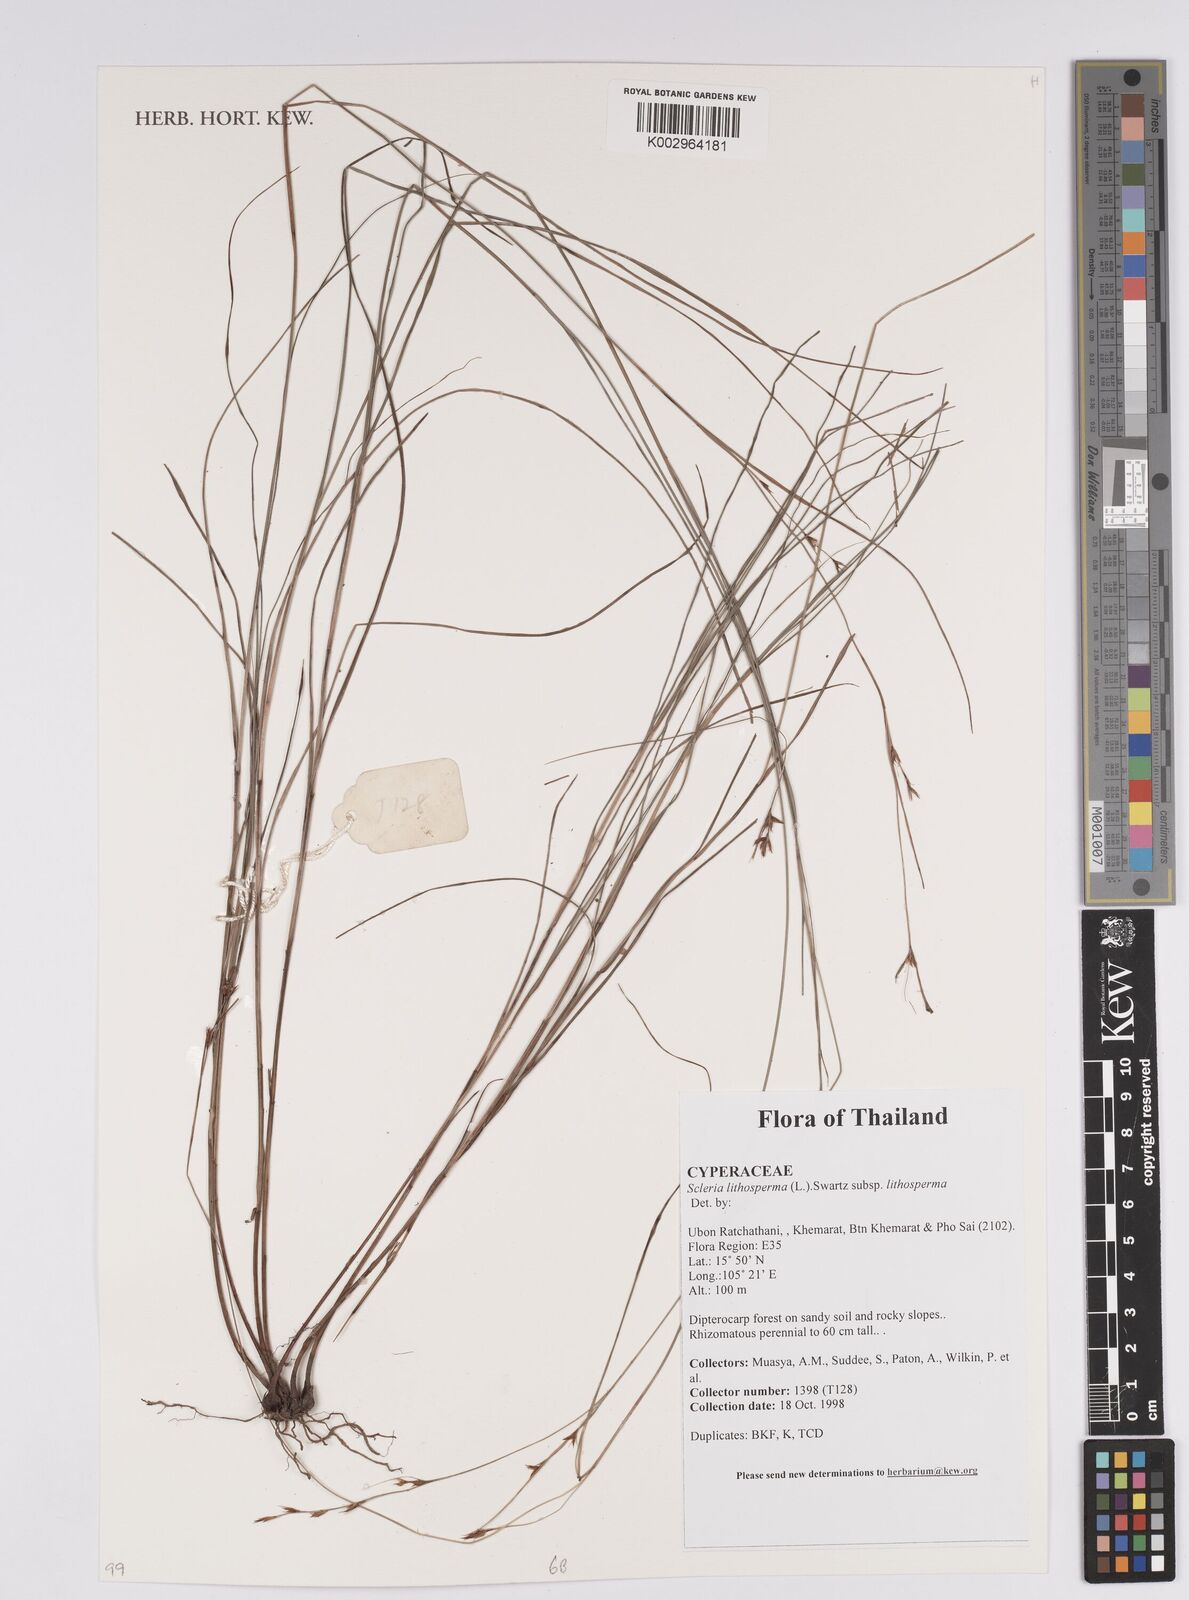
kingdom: Plantae
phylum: Tracheophyta
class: Liliopsida
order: Poales
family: Cyperaceae
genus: Scleria
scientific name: Scleria lithosperma
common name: Florida keys nut-rush
